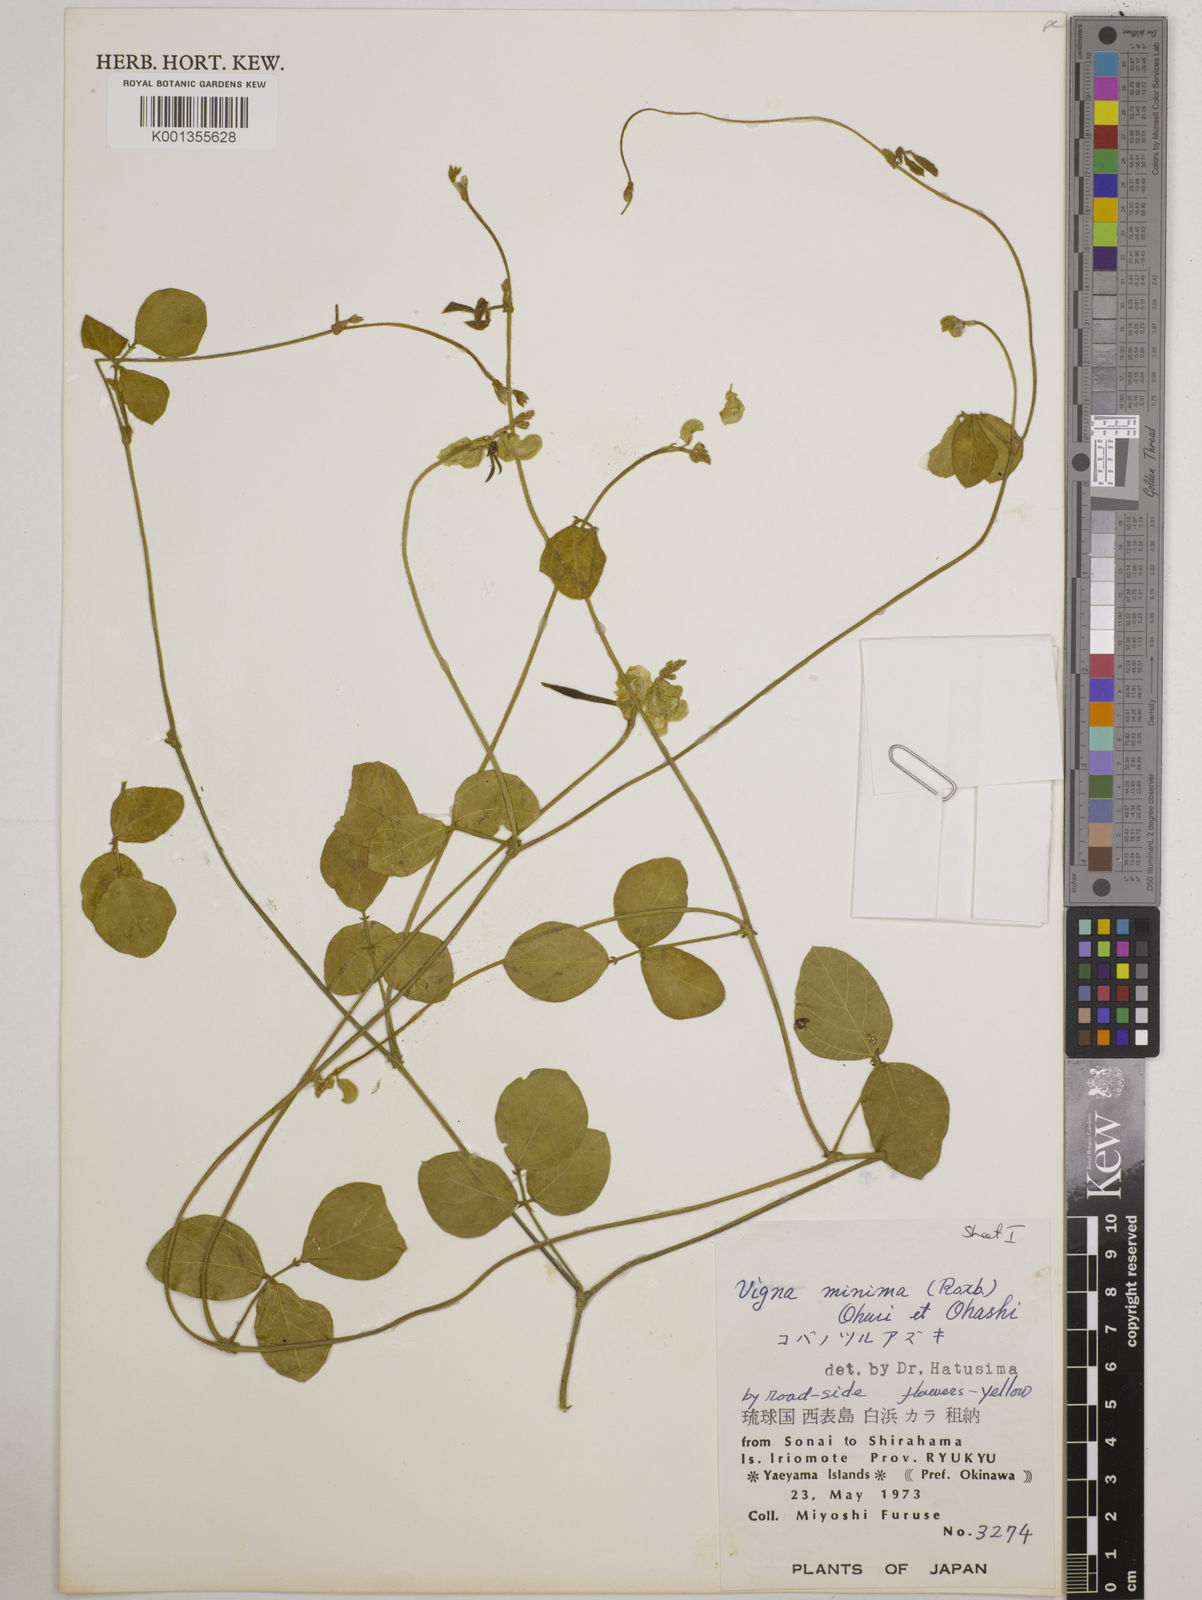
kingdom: Plantae
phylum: Tracheophyta
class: Magnoliopsida
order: Fabales
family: Fabaceae
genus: Vigna
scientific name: Vigna minima
